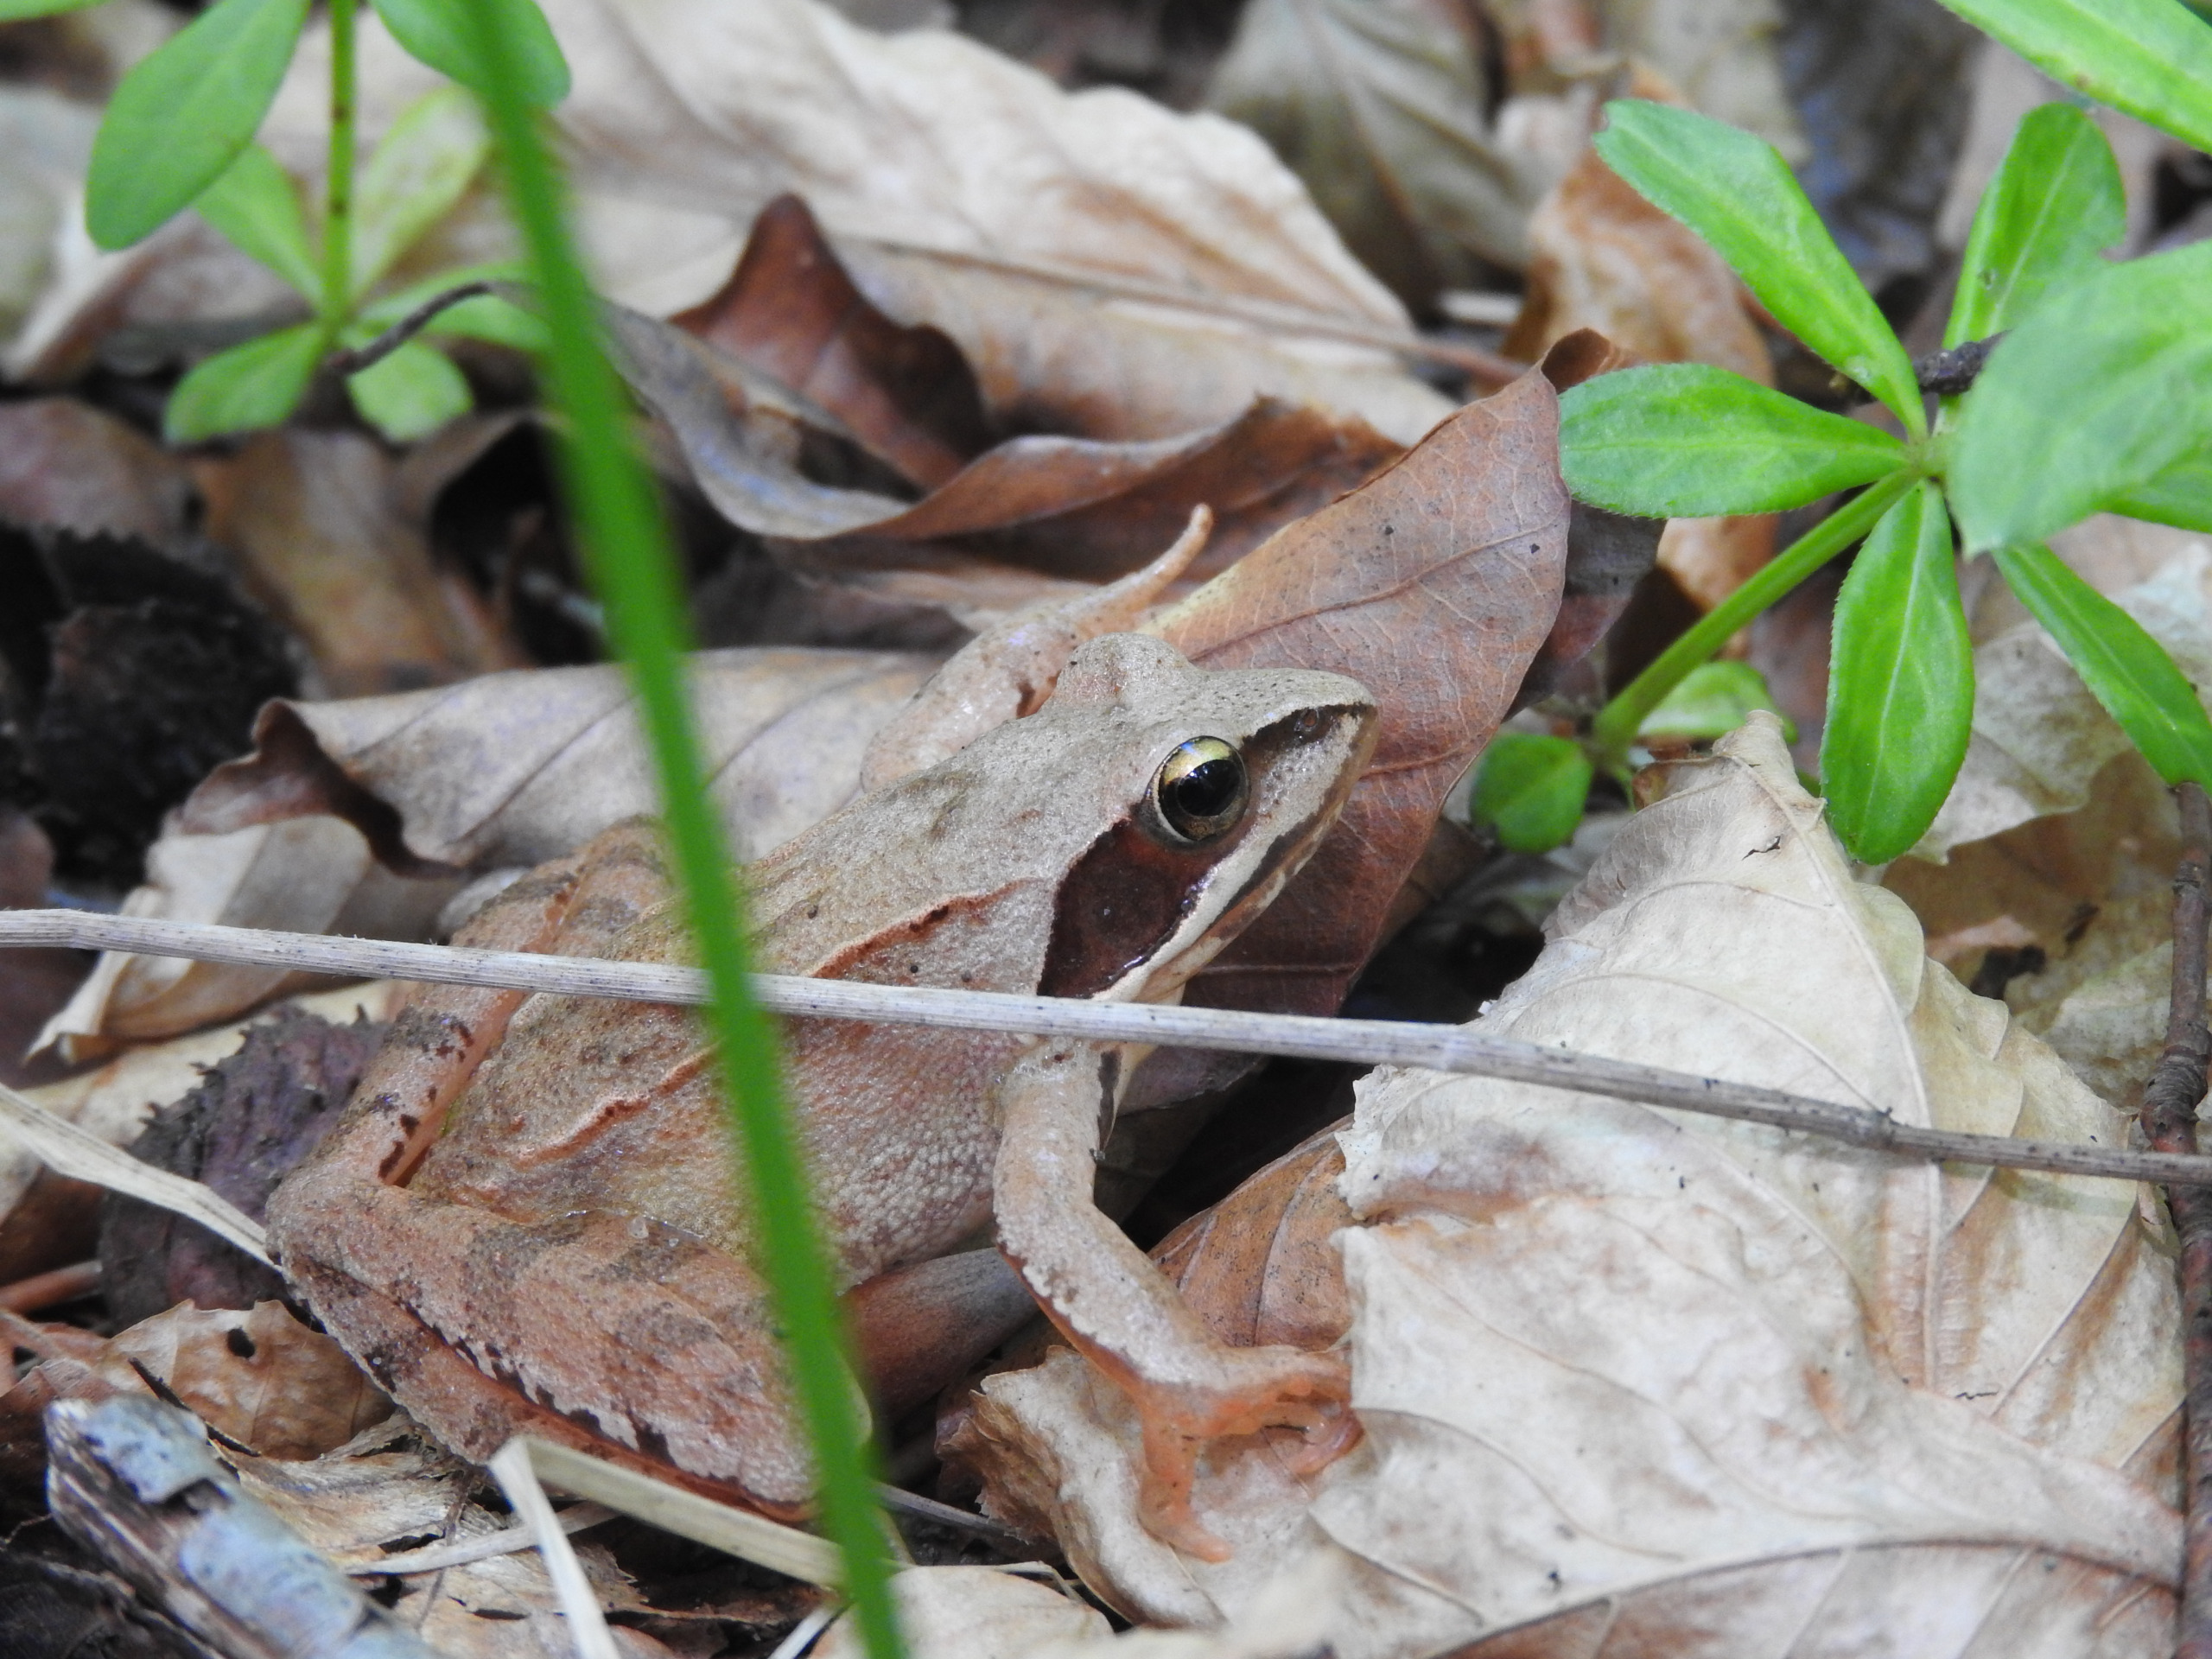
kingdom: Animalia
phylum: Chordata
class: Amphibia
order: Anura
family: Ranidae
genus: Rana
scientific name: Rana dalmatina
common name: Springfrø
